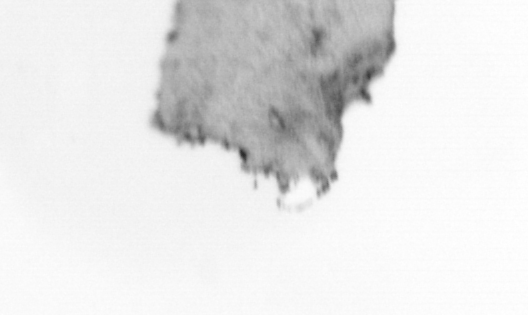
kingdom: Animalia
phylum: Chordata
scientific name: Chordata
